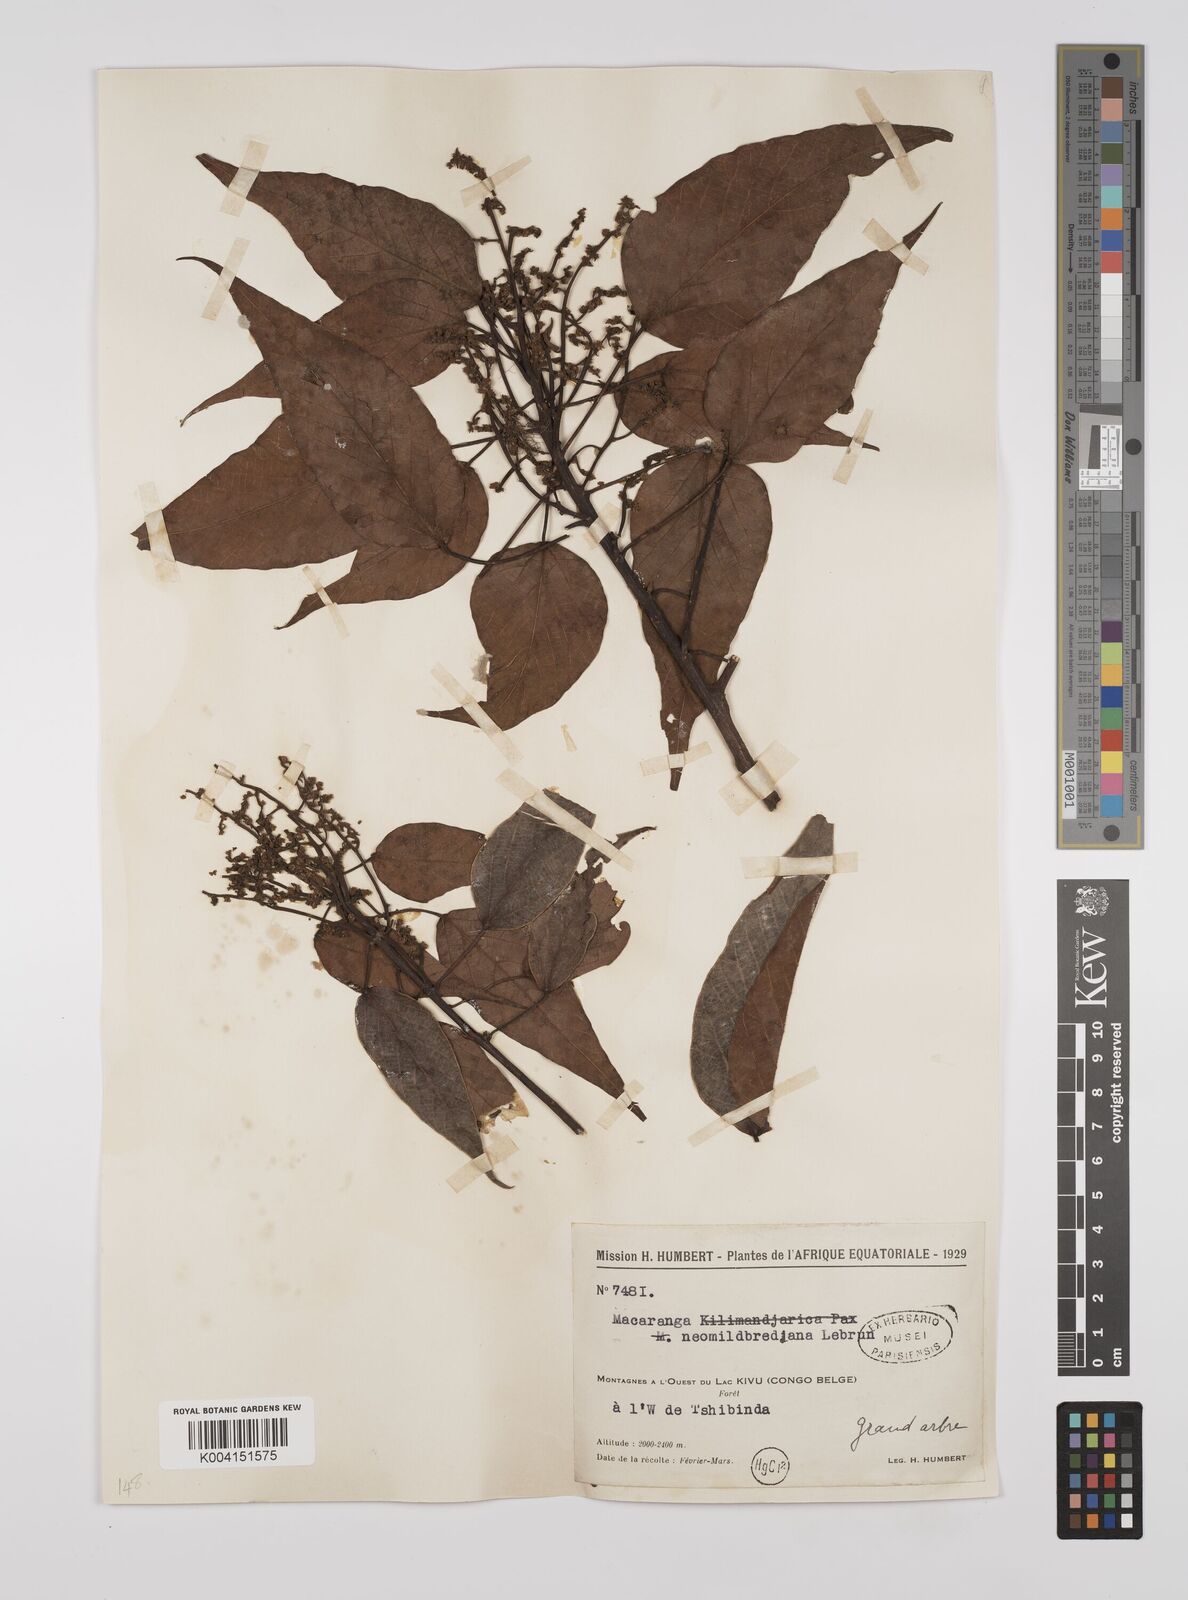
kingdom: Plantae
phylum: Tracheophyta
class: Magnoliopsida
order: Malpighiales
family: Euphorbiaceae
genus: Macaranga
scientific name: Macaranga kilimandscharica
